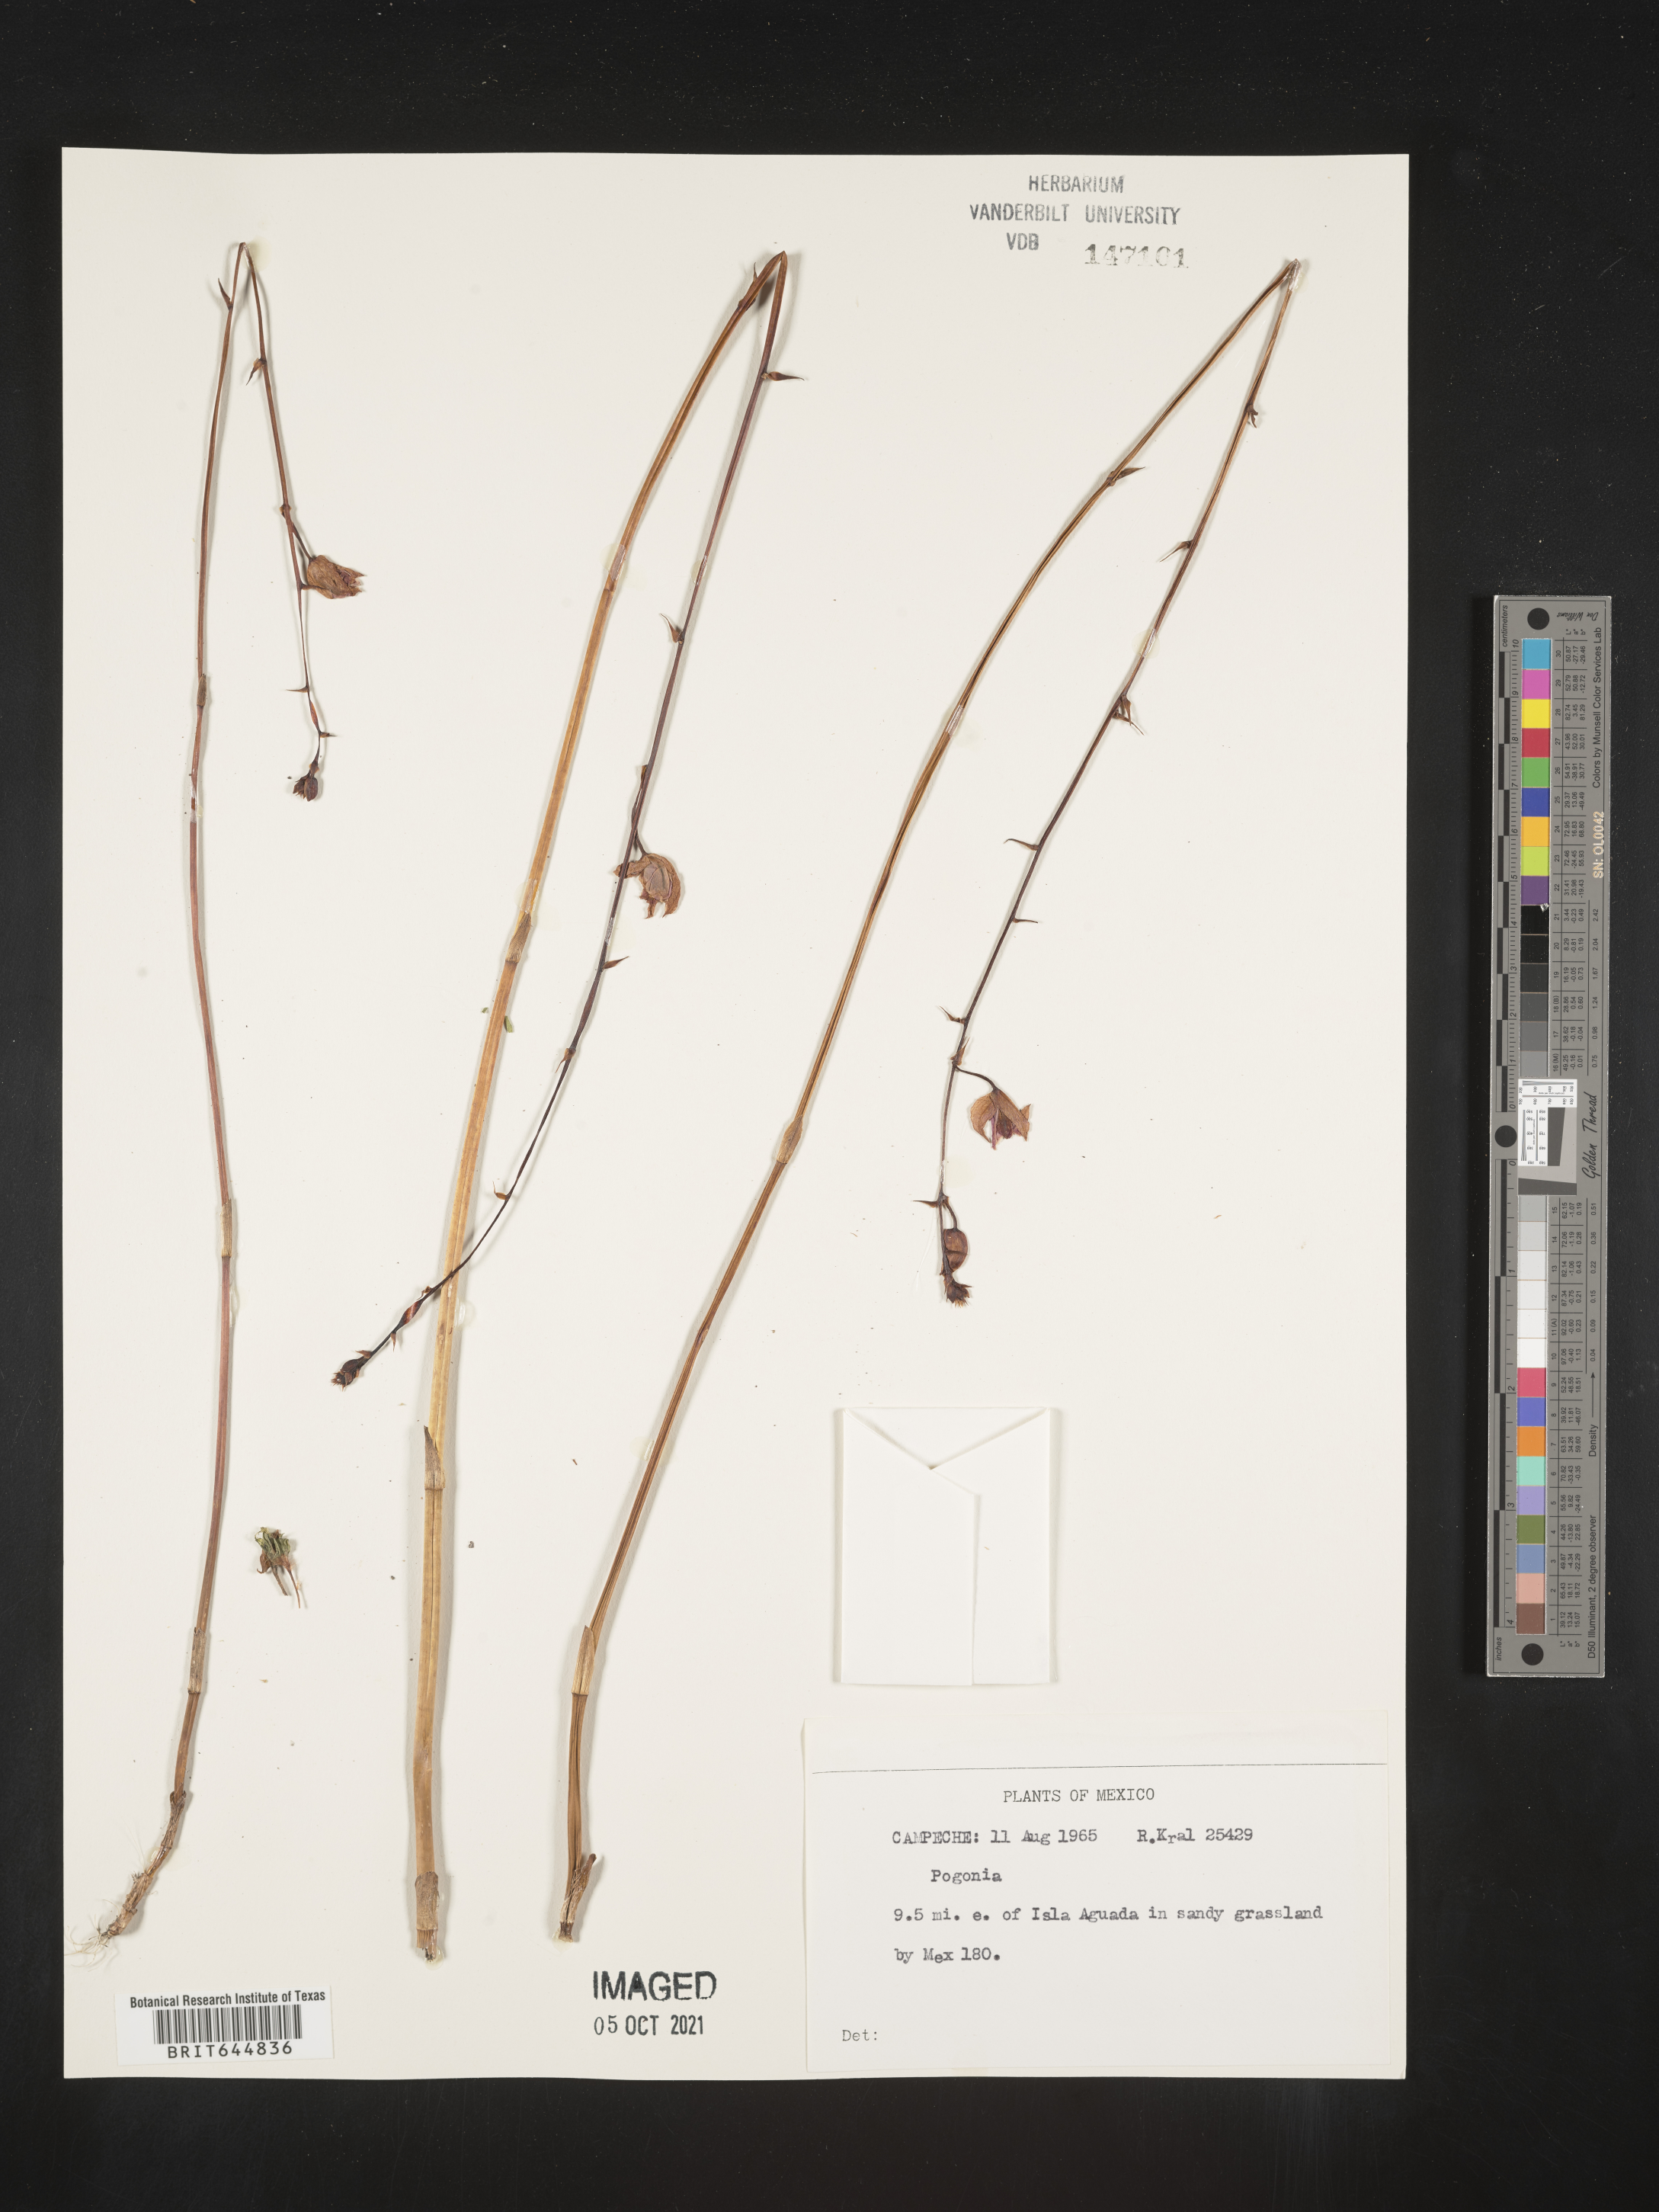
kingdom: Plantae
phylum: Tracheophyta
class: Liliopsida
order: Asparagales
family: Orchidaceae
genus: Pogonia
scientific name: Pogonia
